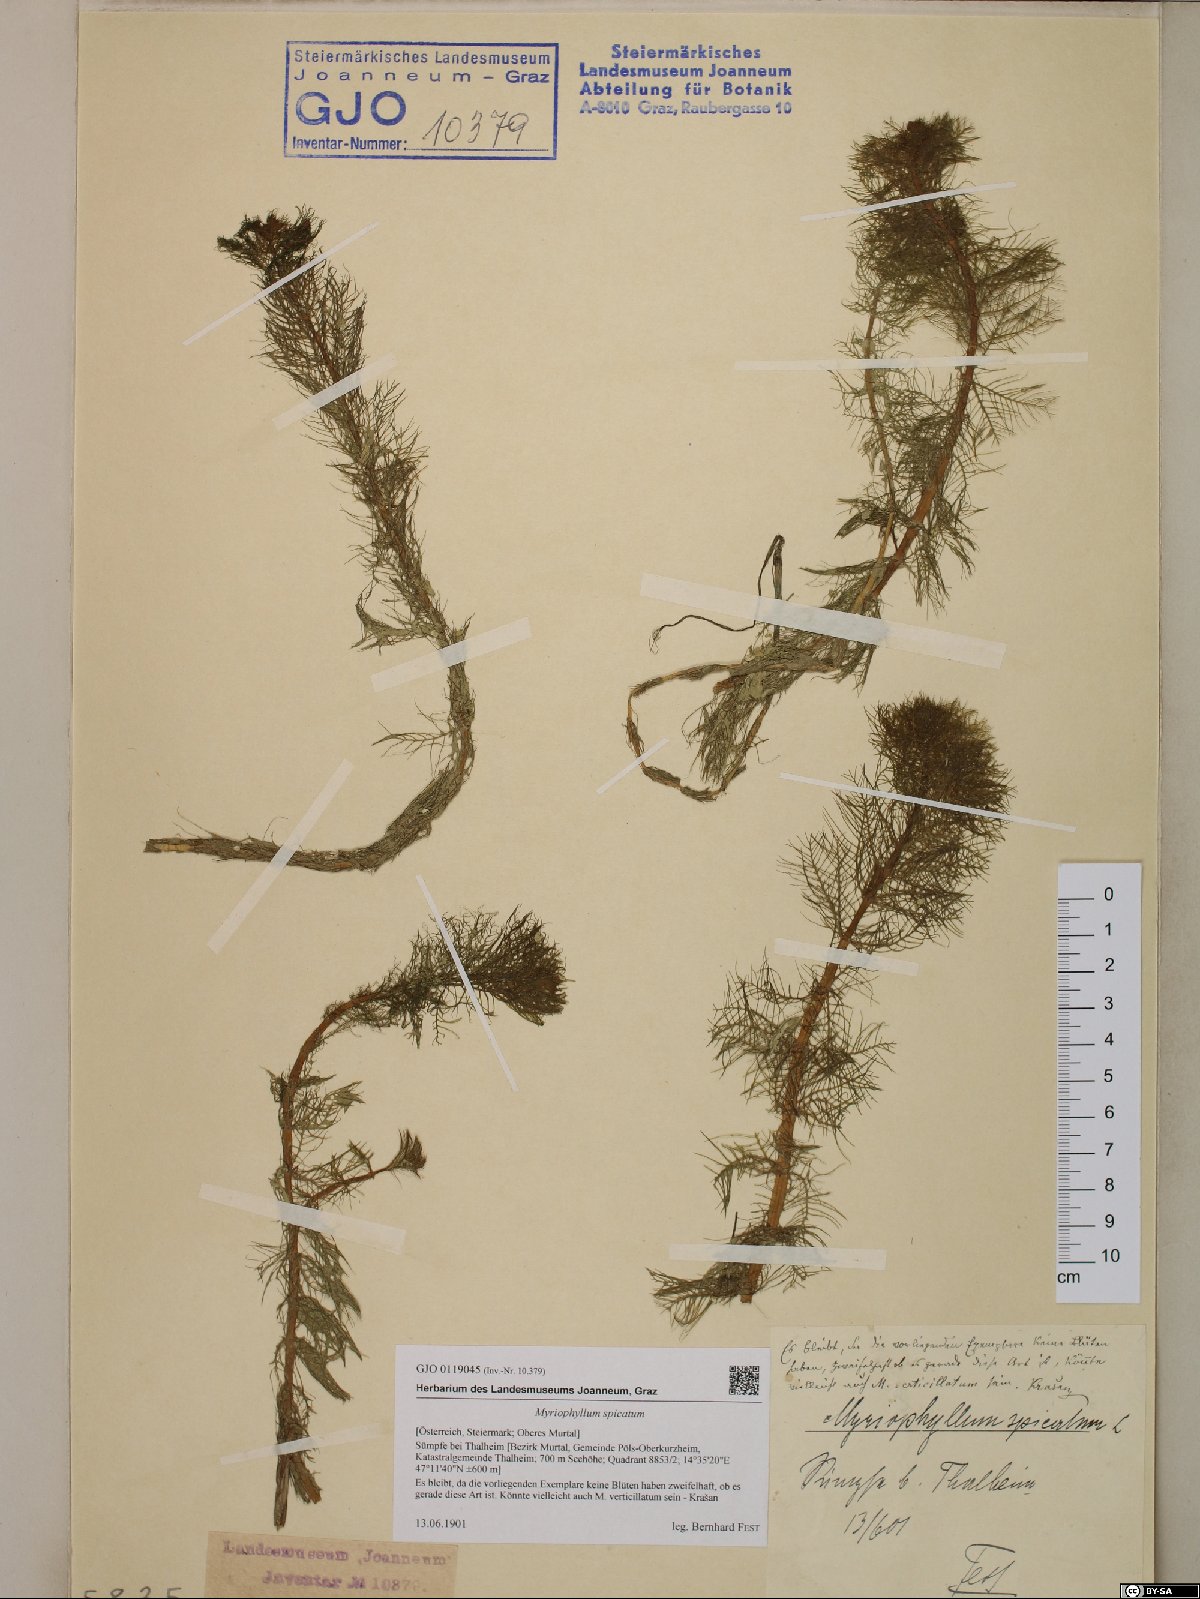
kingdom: Plantae
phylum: Tracheophyta
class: Magnoliopsida
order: Saxifragales
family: Haloragaceae
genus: Myriophyllum
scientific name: Myriophyllum spicatum
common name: Spiked water-milfoil
